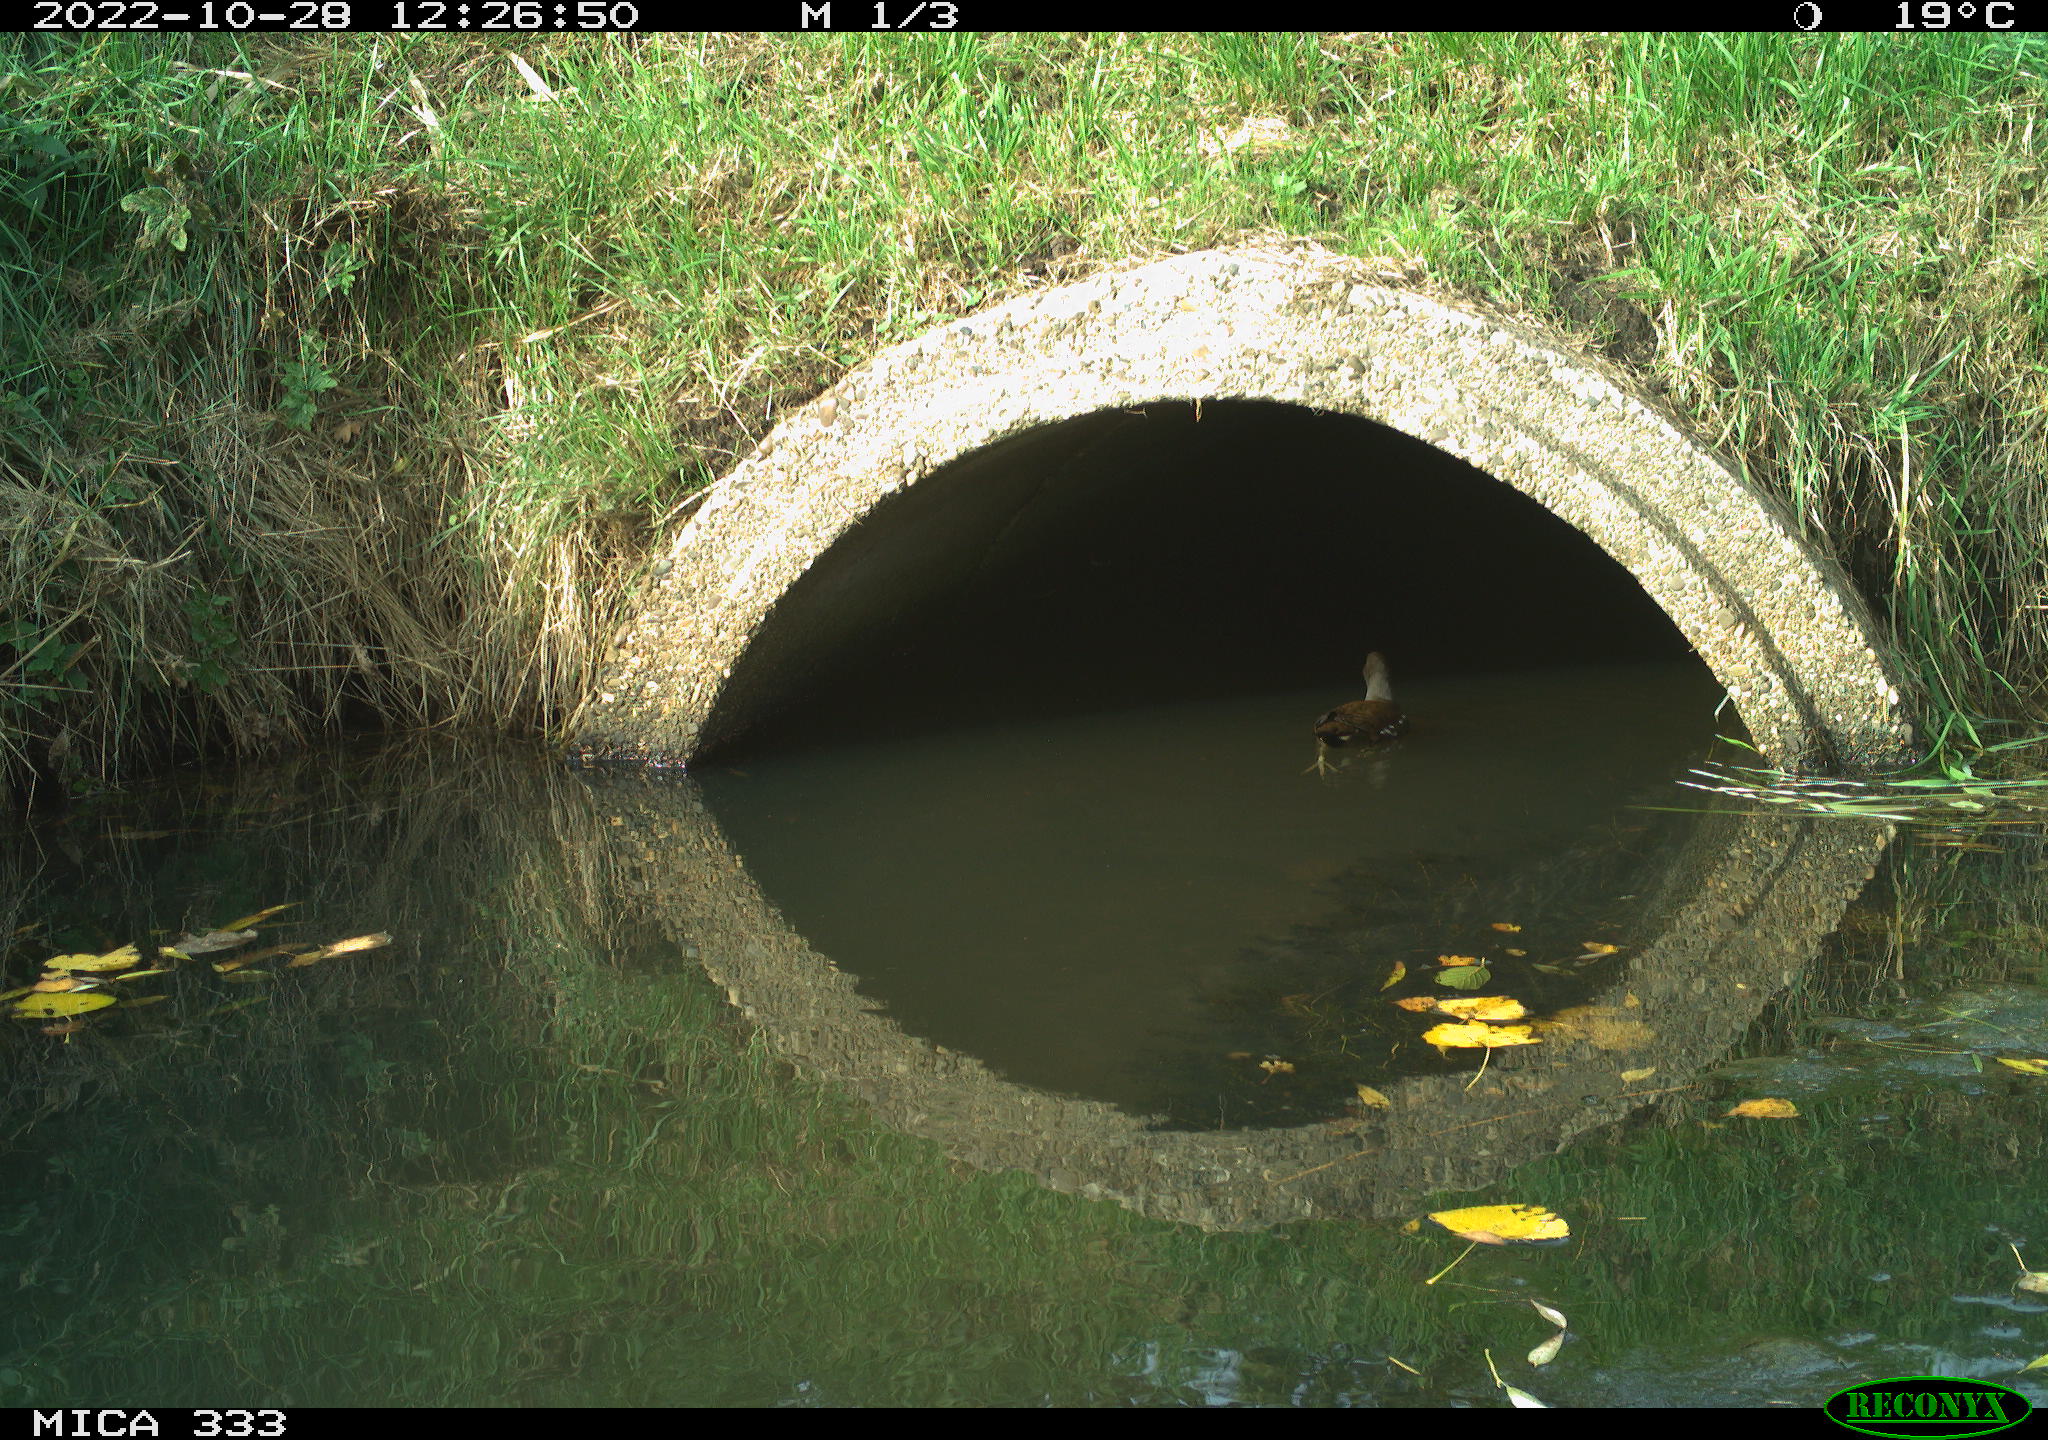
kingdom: Animalia
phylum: Chordata
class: Aves
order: Gruiformes
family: Rallidae
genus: Gallinula
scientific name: Gallinula chloropus
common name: Common moorhen
